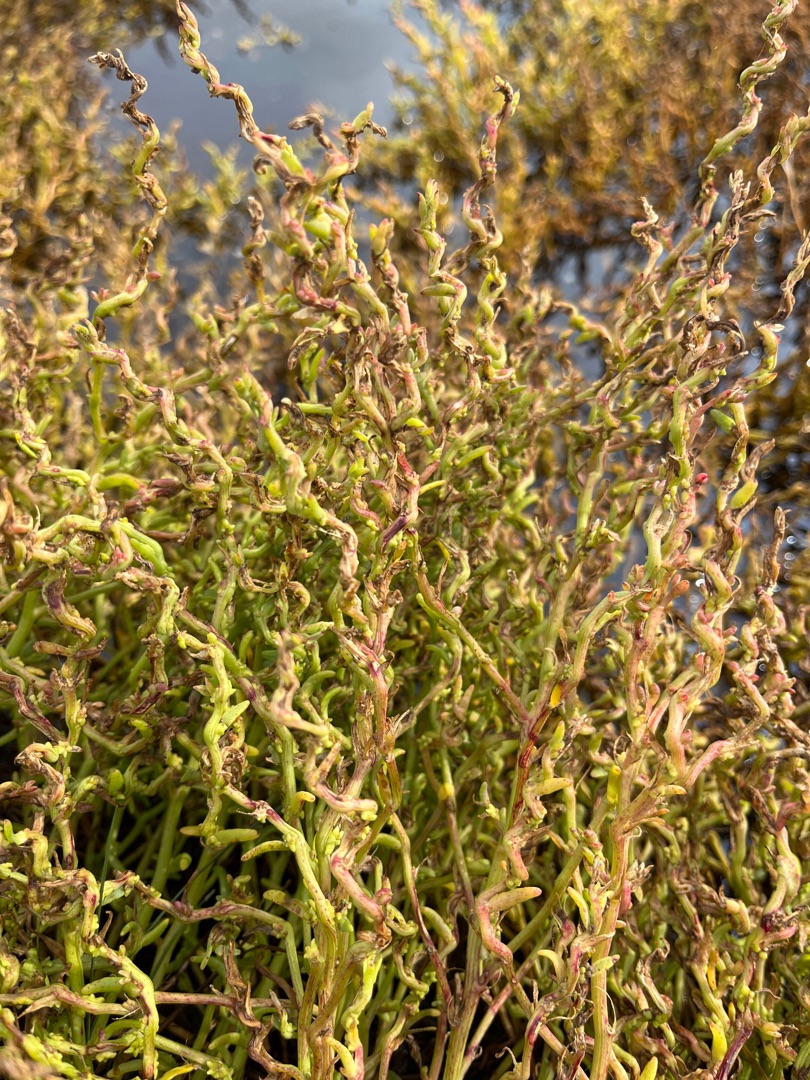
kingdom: Plantae
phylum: Tracheophyta
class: Magnoliopsida
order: Caryophyllales
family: Amaranthaceae
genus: Spirobassia
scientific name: Spirobassia hirsuta
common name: Tangurt
